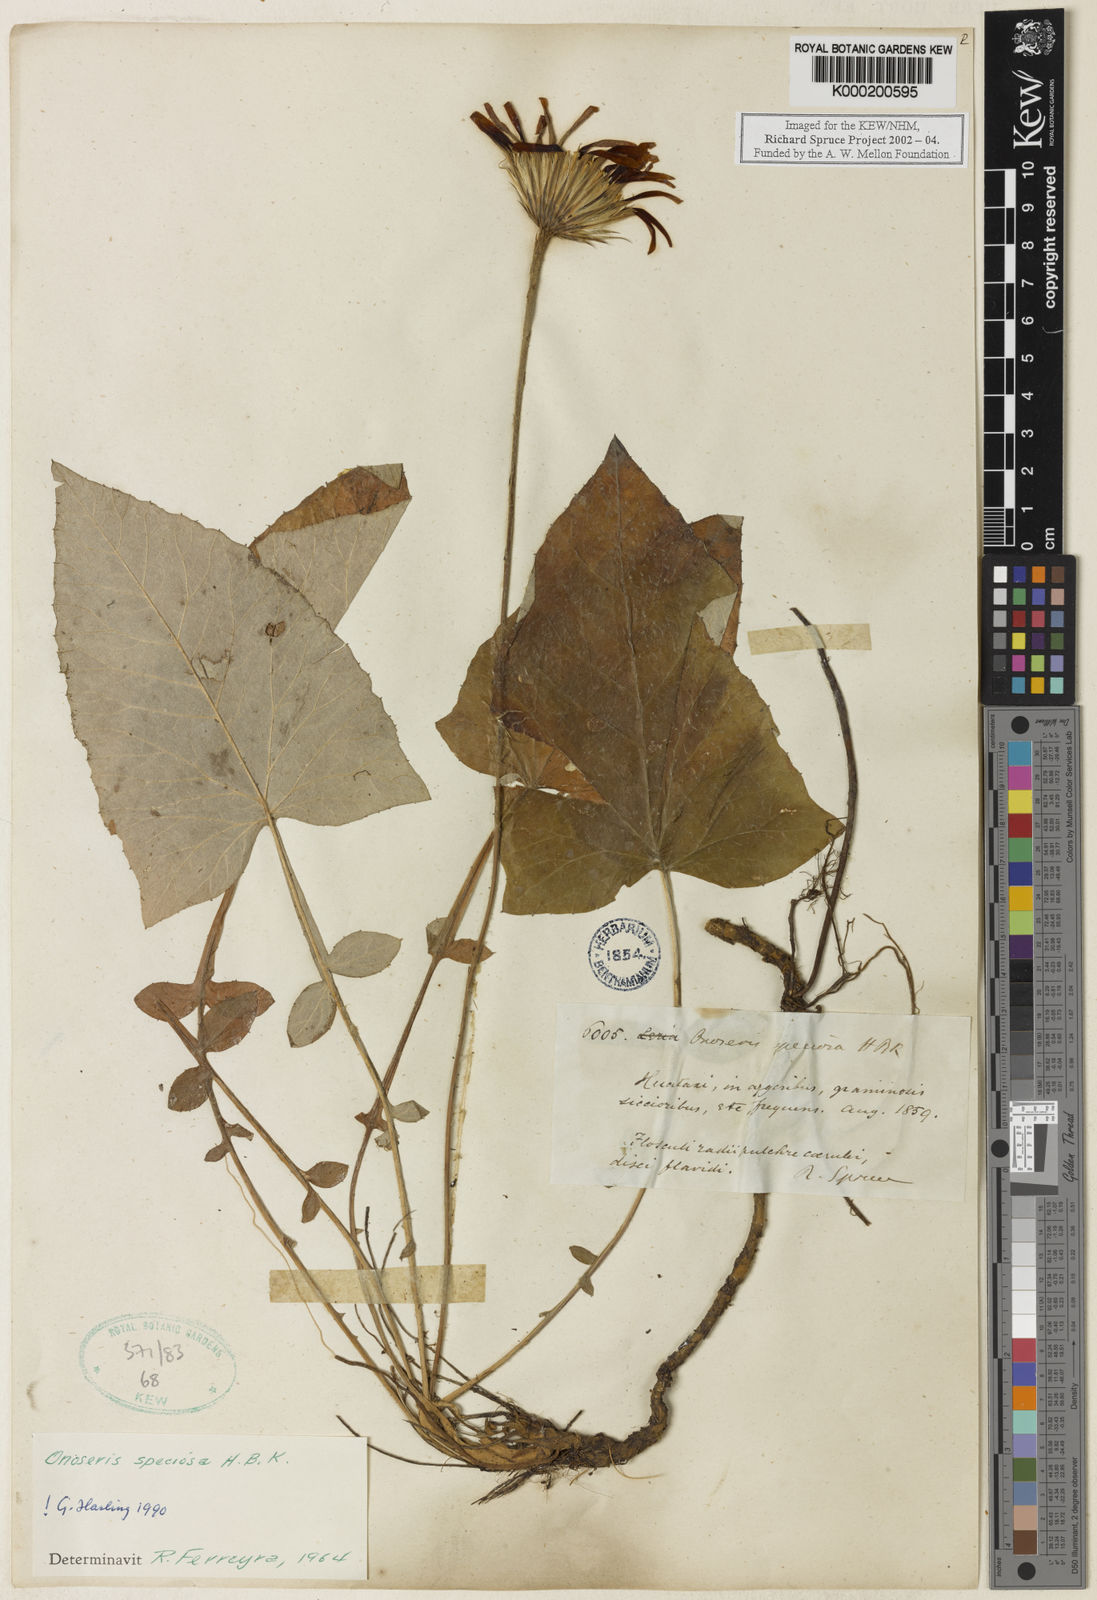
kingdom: Plantae
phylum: Tracheophyta
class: Magnoliopsida
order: Asterales
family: Asteraceae
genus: Onoseris
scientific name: Onoseris
